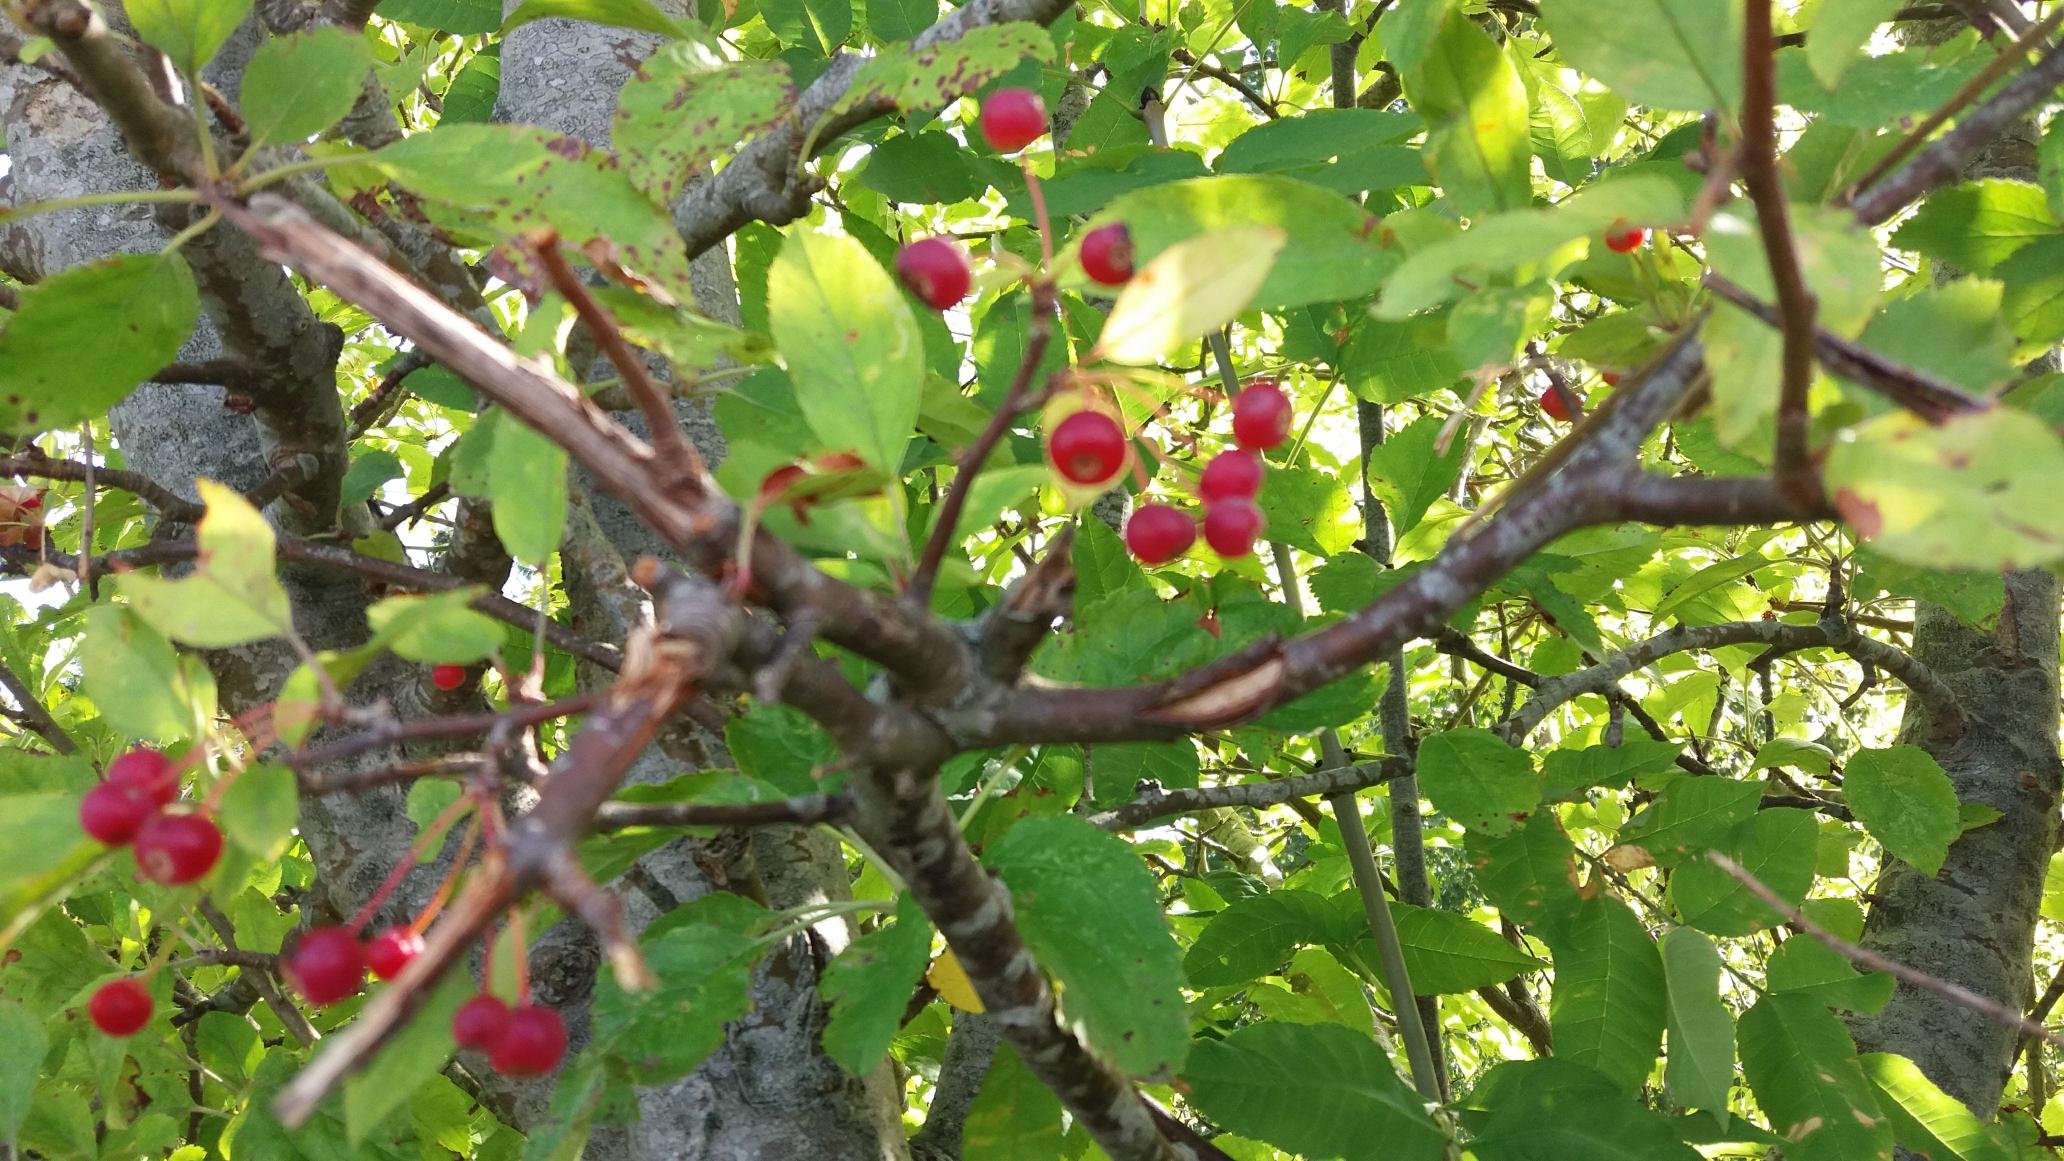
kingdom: Plantae
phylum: Tracheophyta
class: Magnoliopsida
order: Rosales
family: Rosaceae
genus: Malus
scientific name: Malus
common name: Æbleslægten
